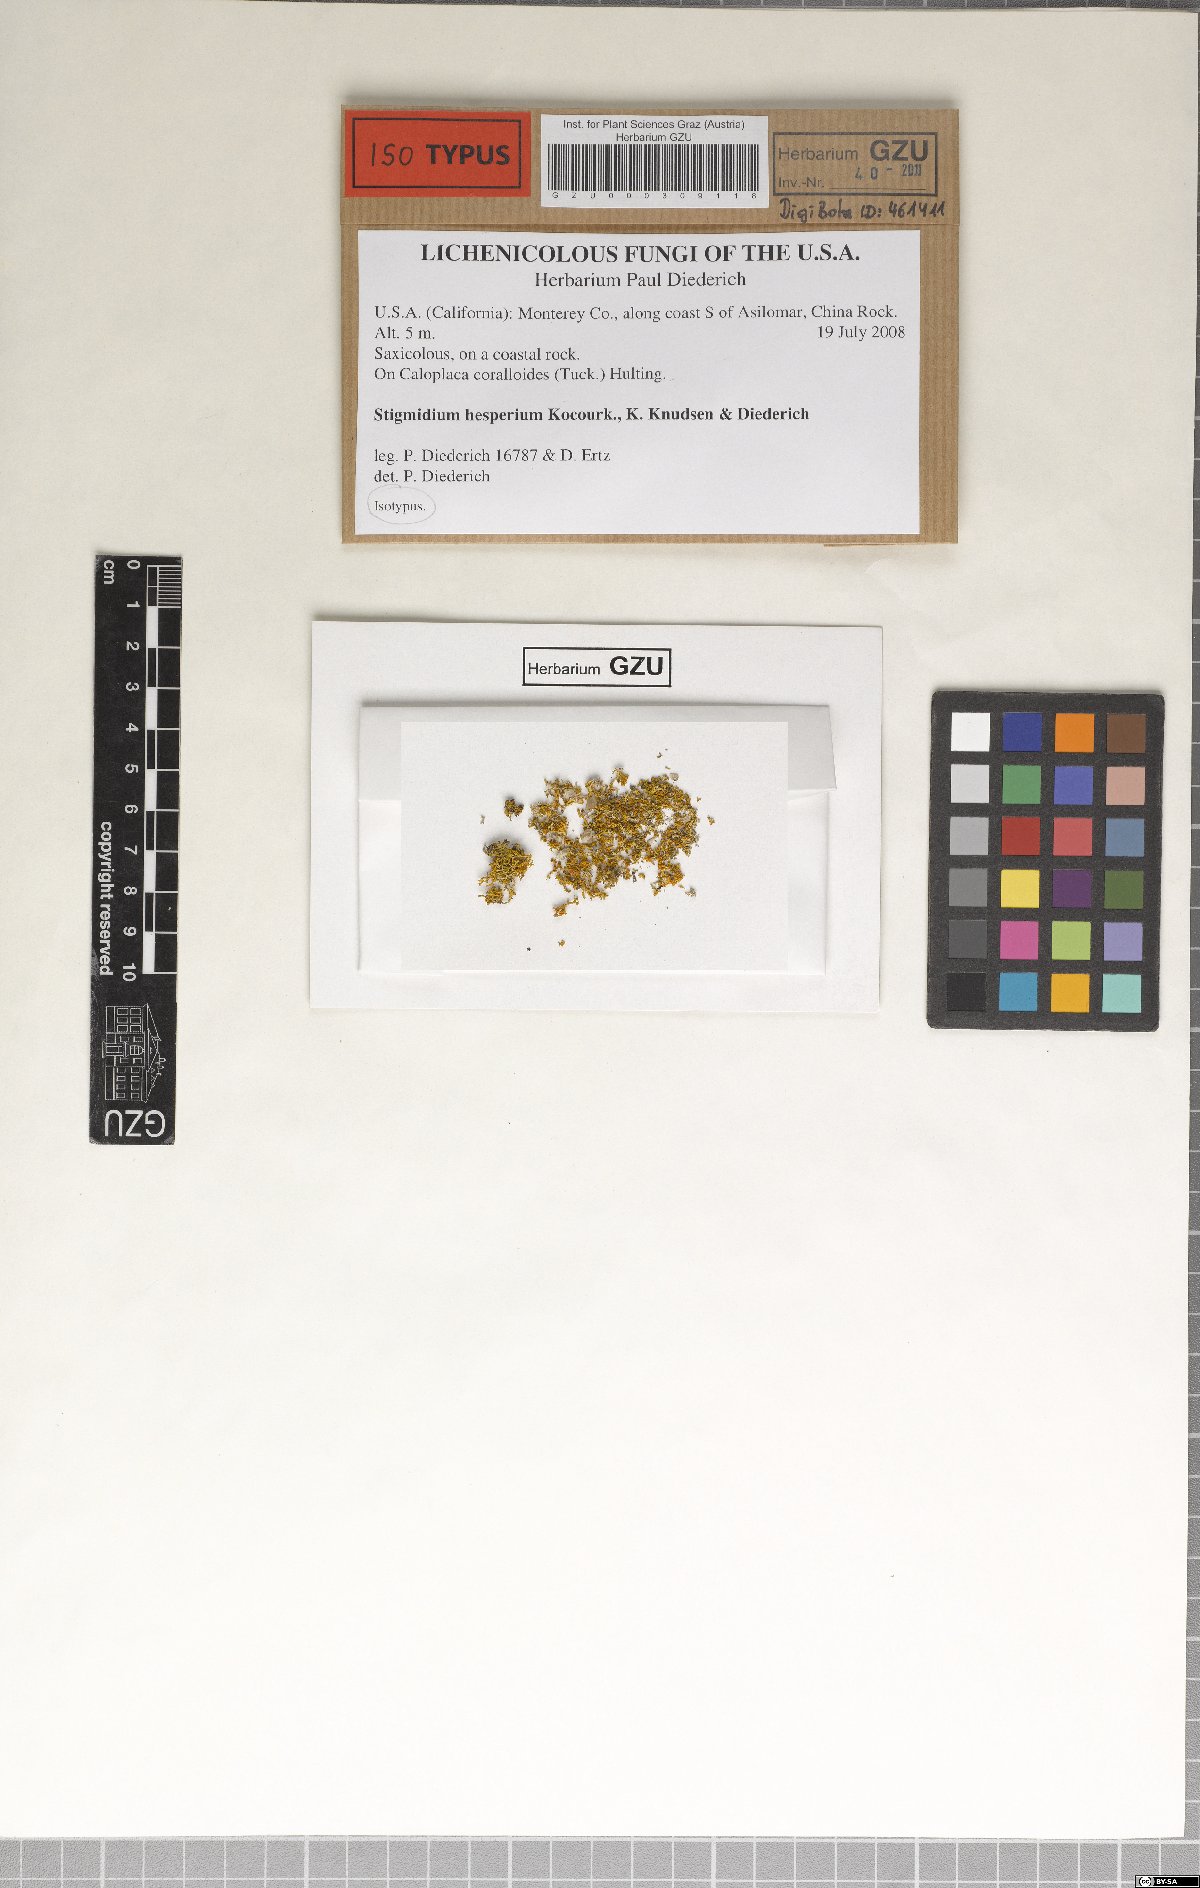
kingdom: Fungi
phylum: Ascomycota
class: Dothideomycetes
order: Mycosphaerellales
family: Mycosphaerellaceae
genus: Stigmidium
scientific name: Stigmidium hesperium
